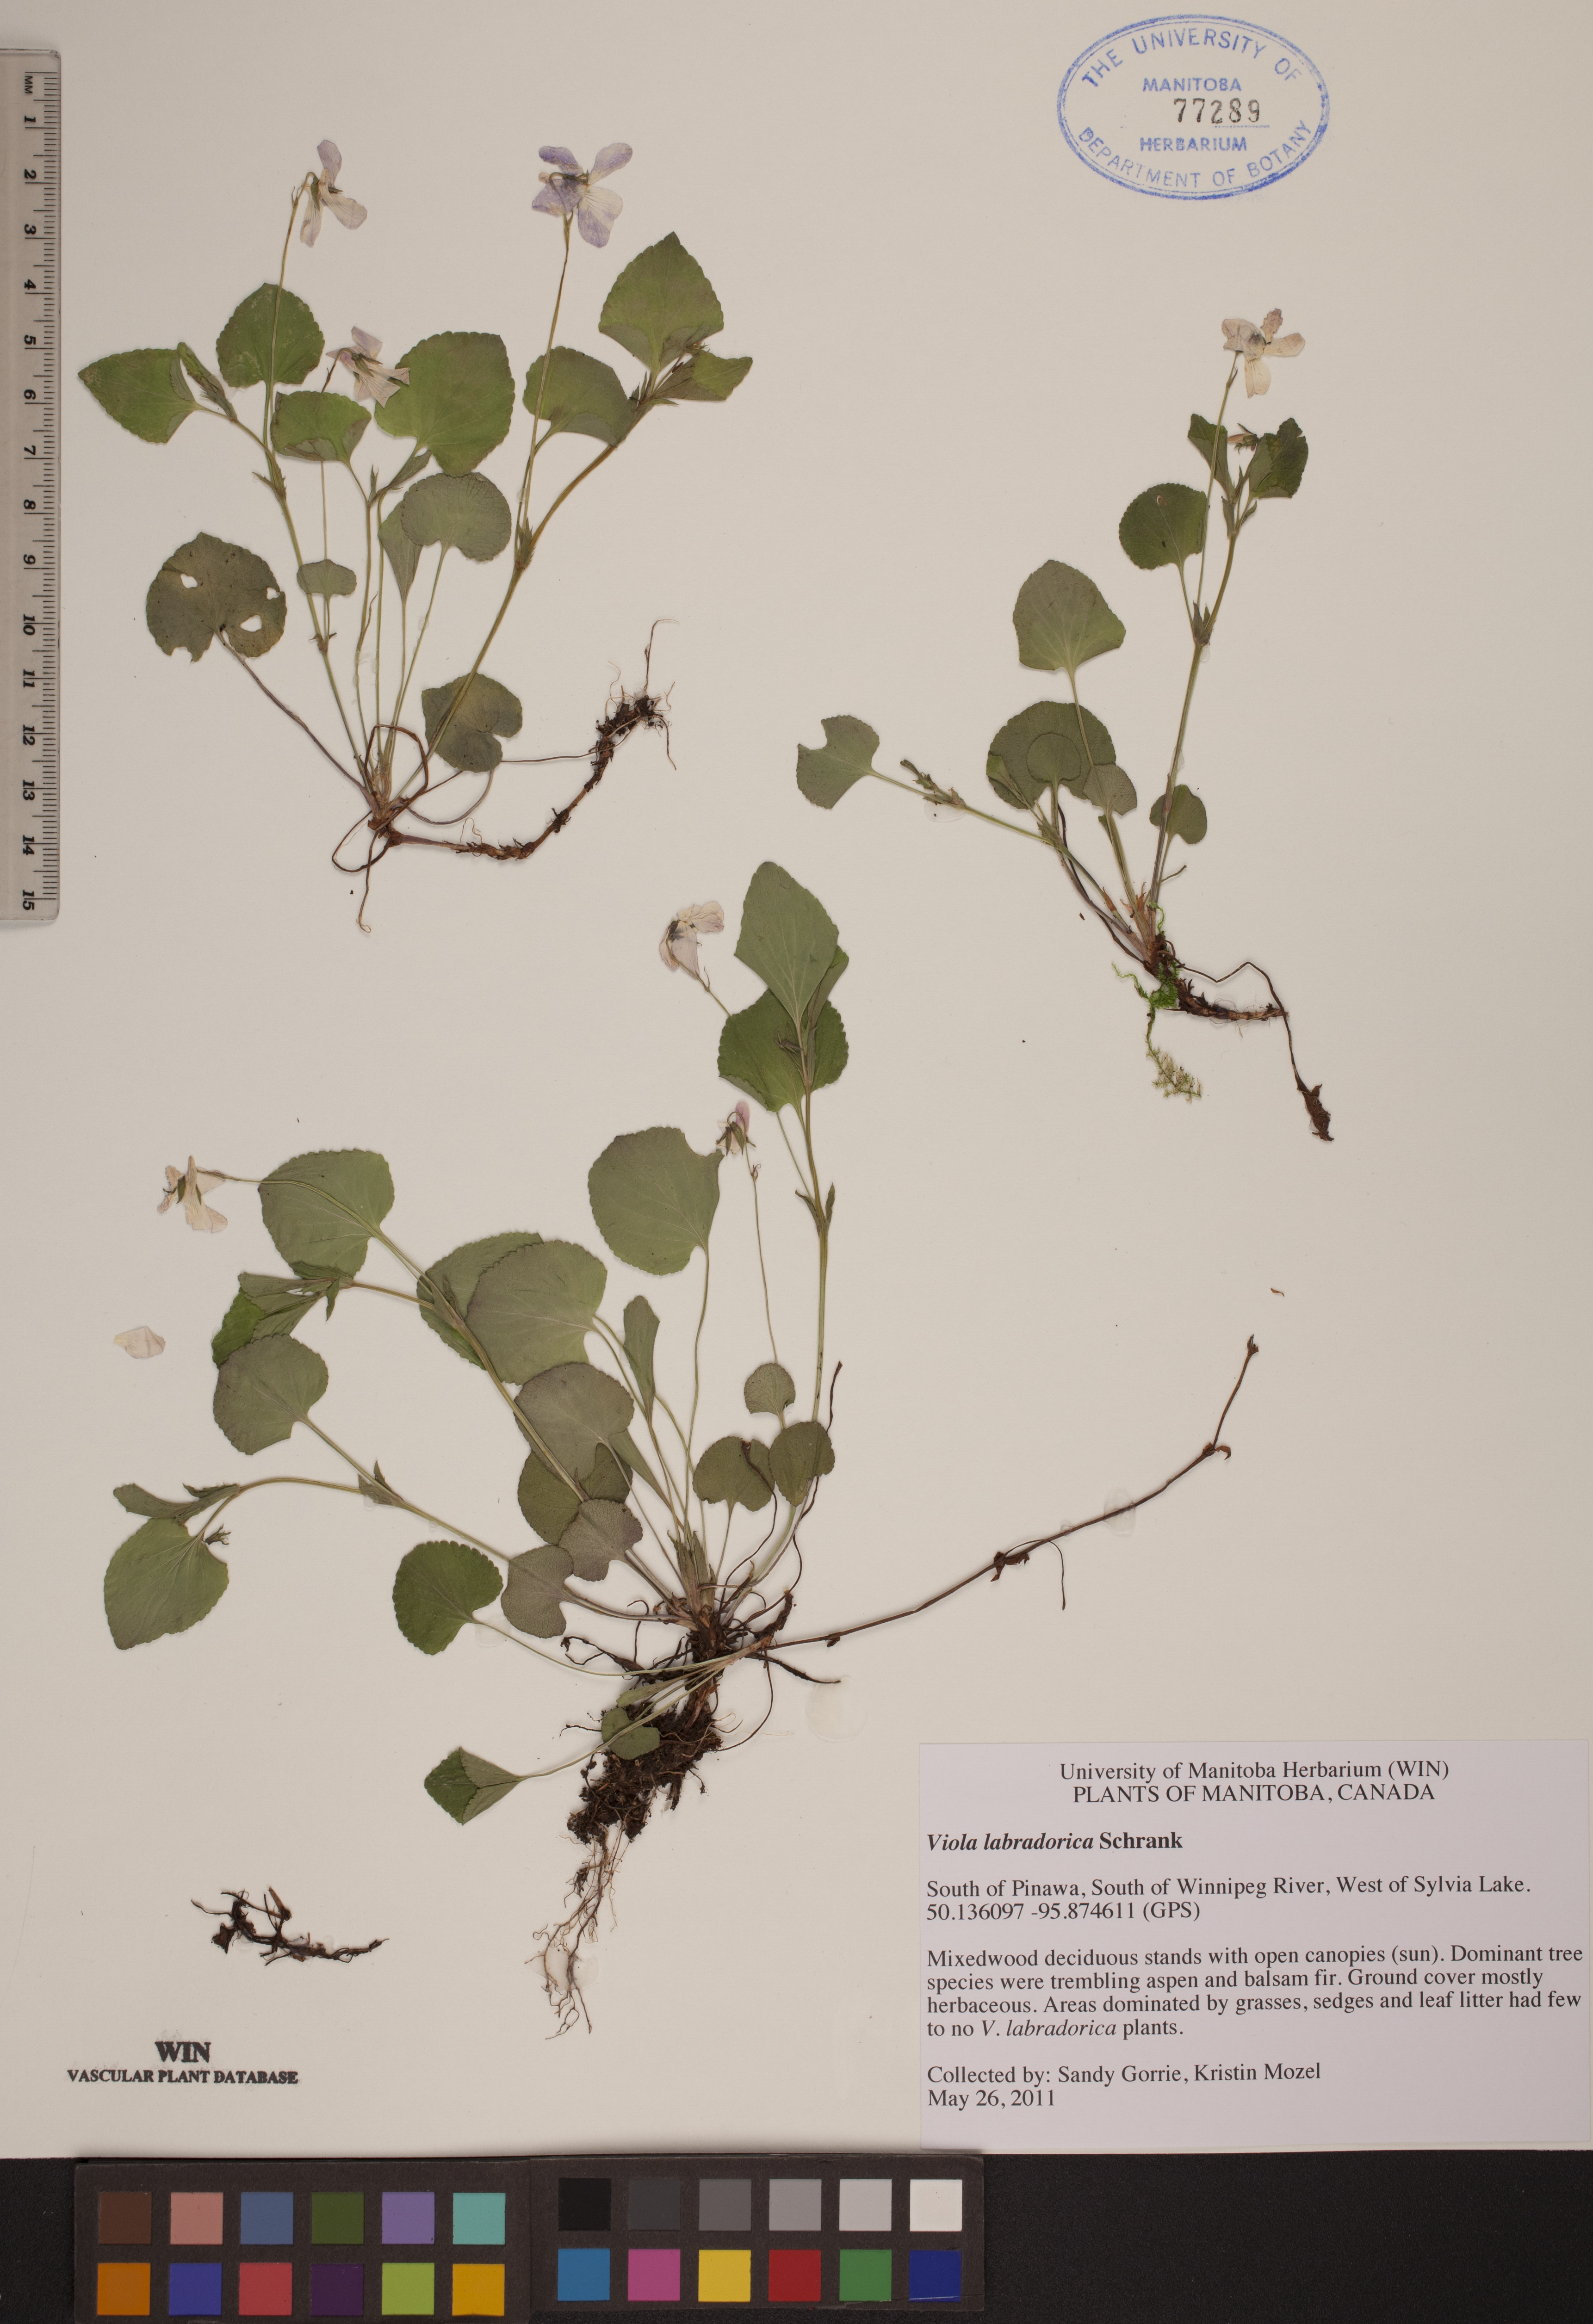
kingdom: Plantae
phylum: Tracheophyta
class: Magnoliopsida
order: Malpighiales
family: Violaceae
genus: Viola
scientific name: Viola labradorica
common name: Labrador violet
